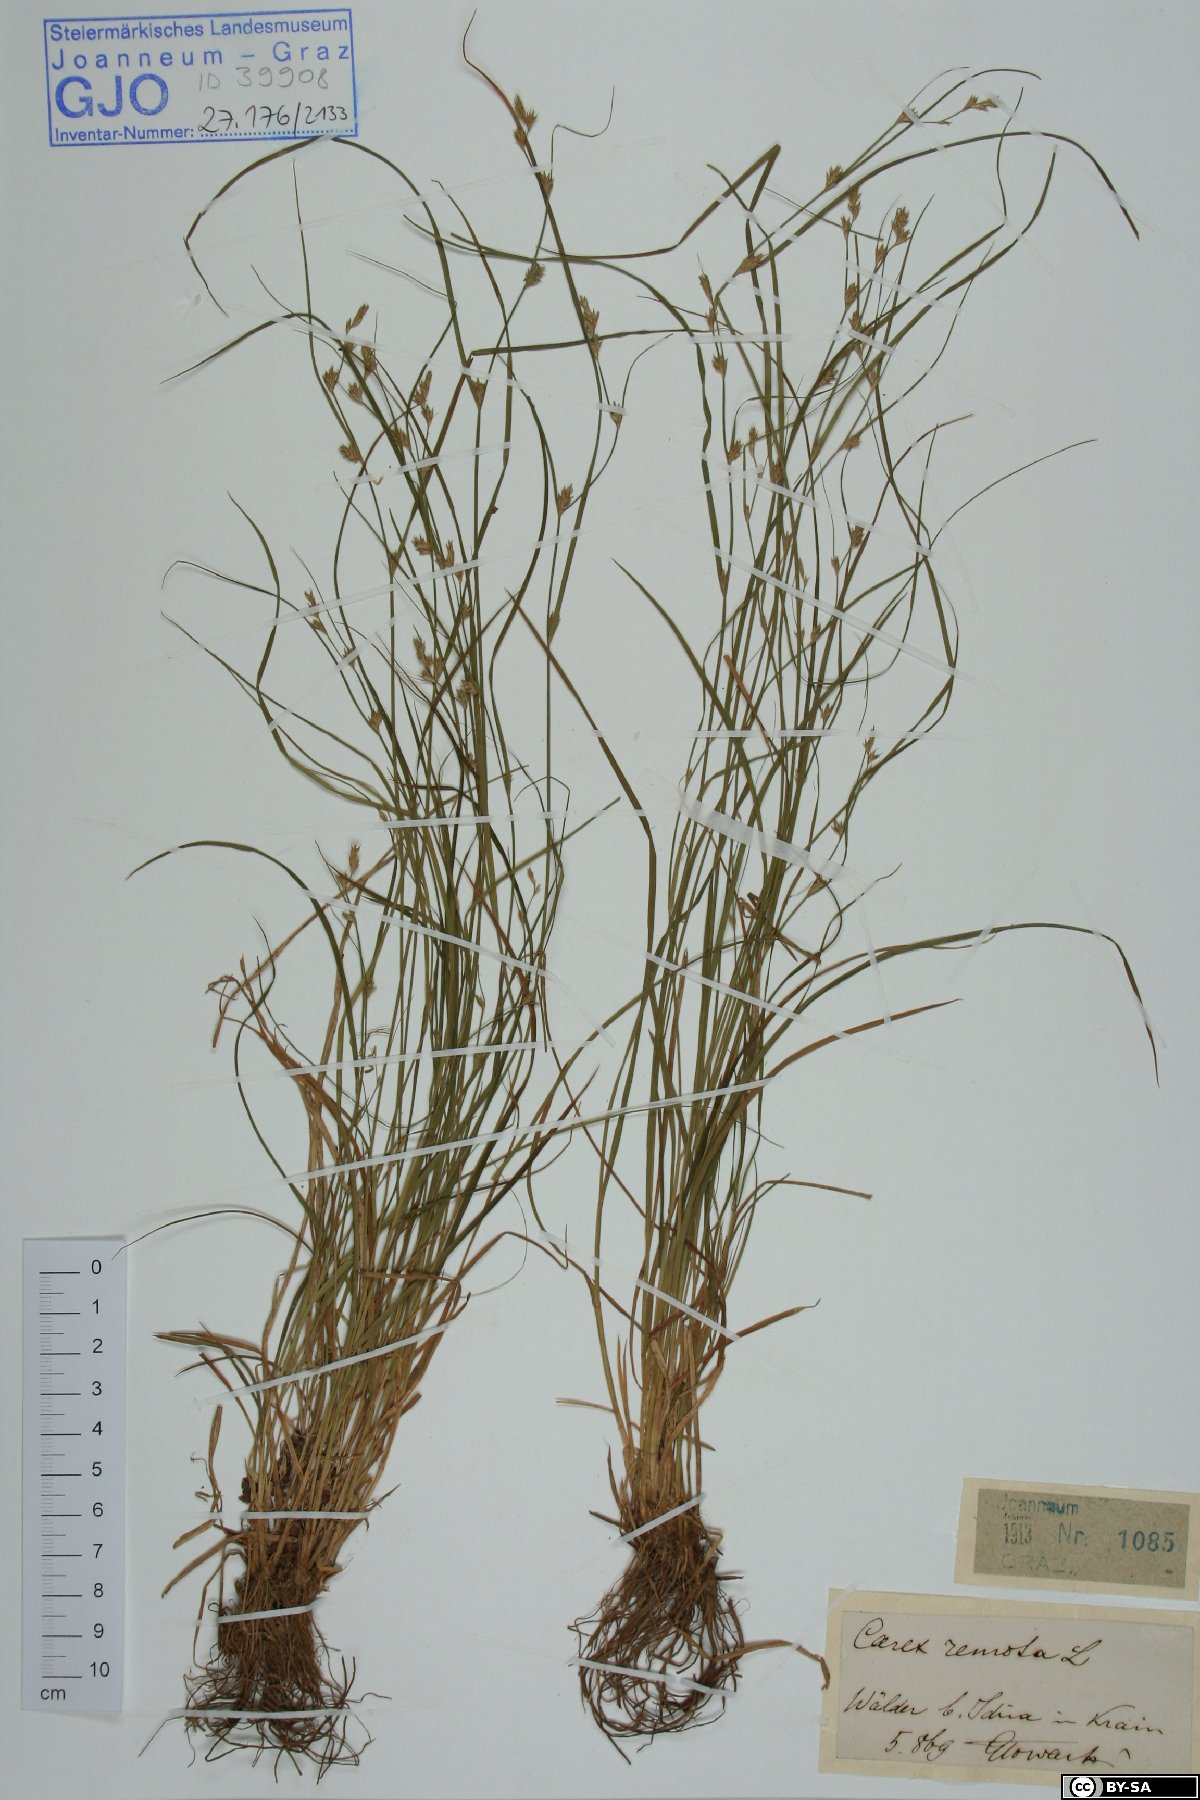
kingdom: Plantae
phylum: Tracheophyta
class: Liliopsida
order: Poales
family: Cyperaceae
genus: Carex
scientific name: Carex remota
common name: Remote sedge
